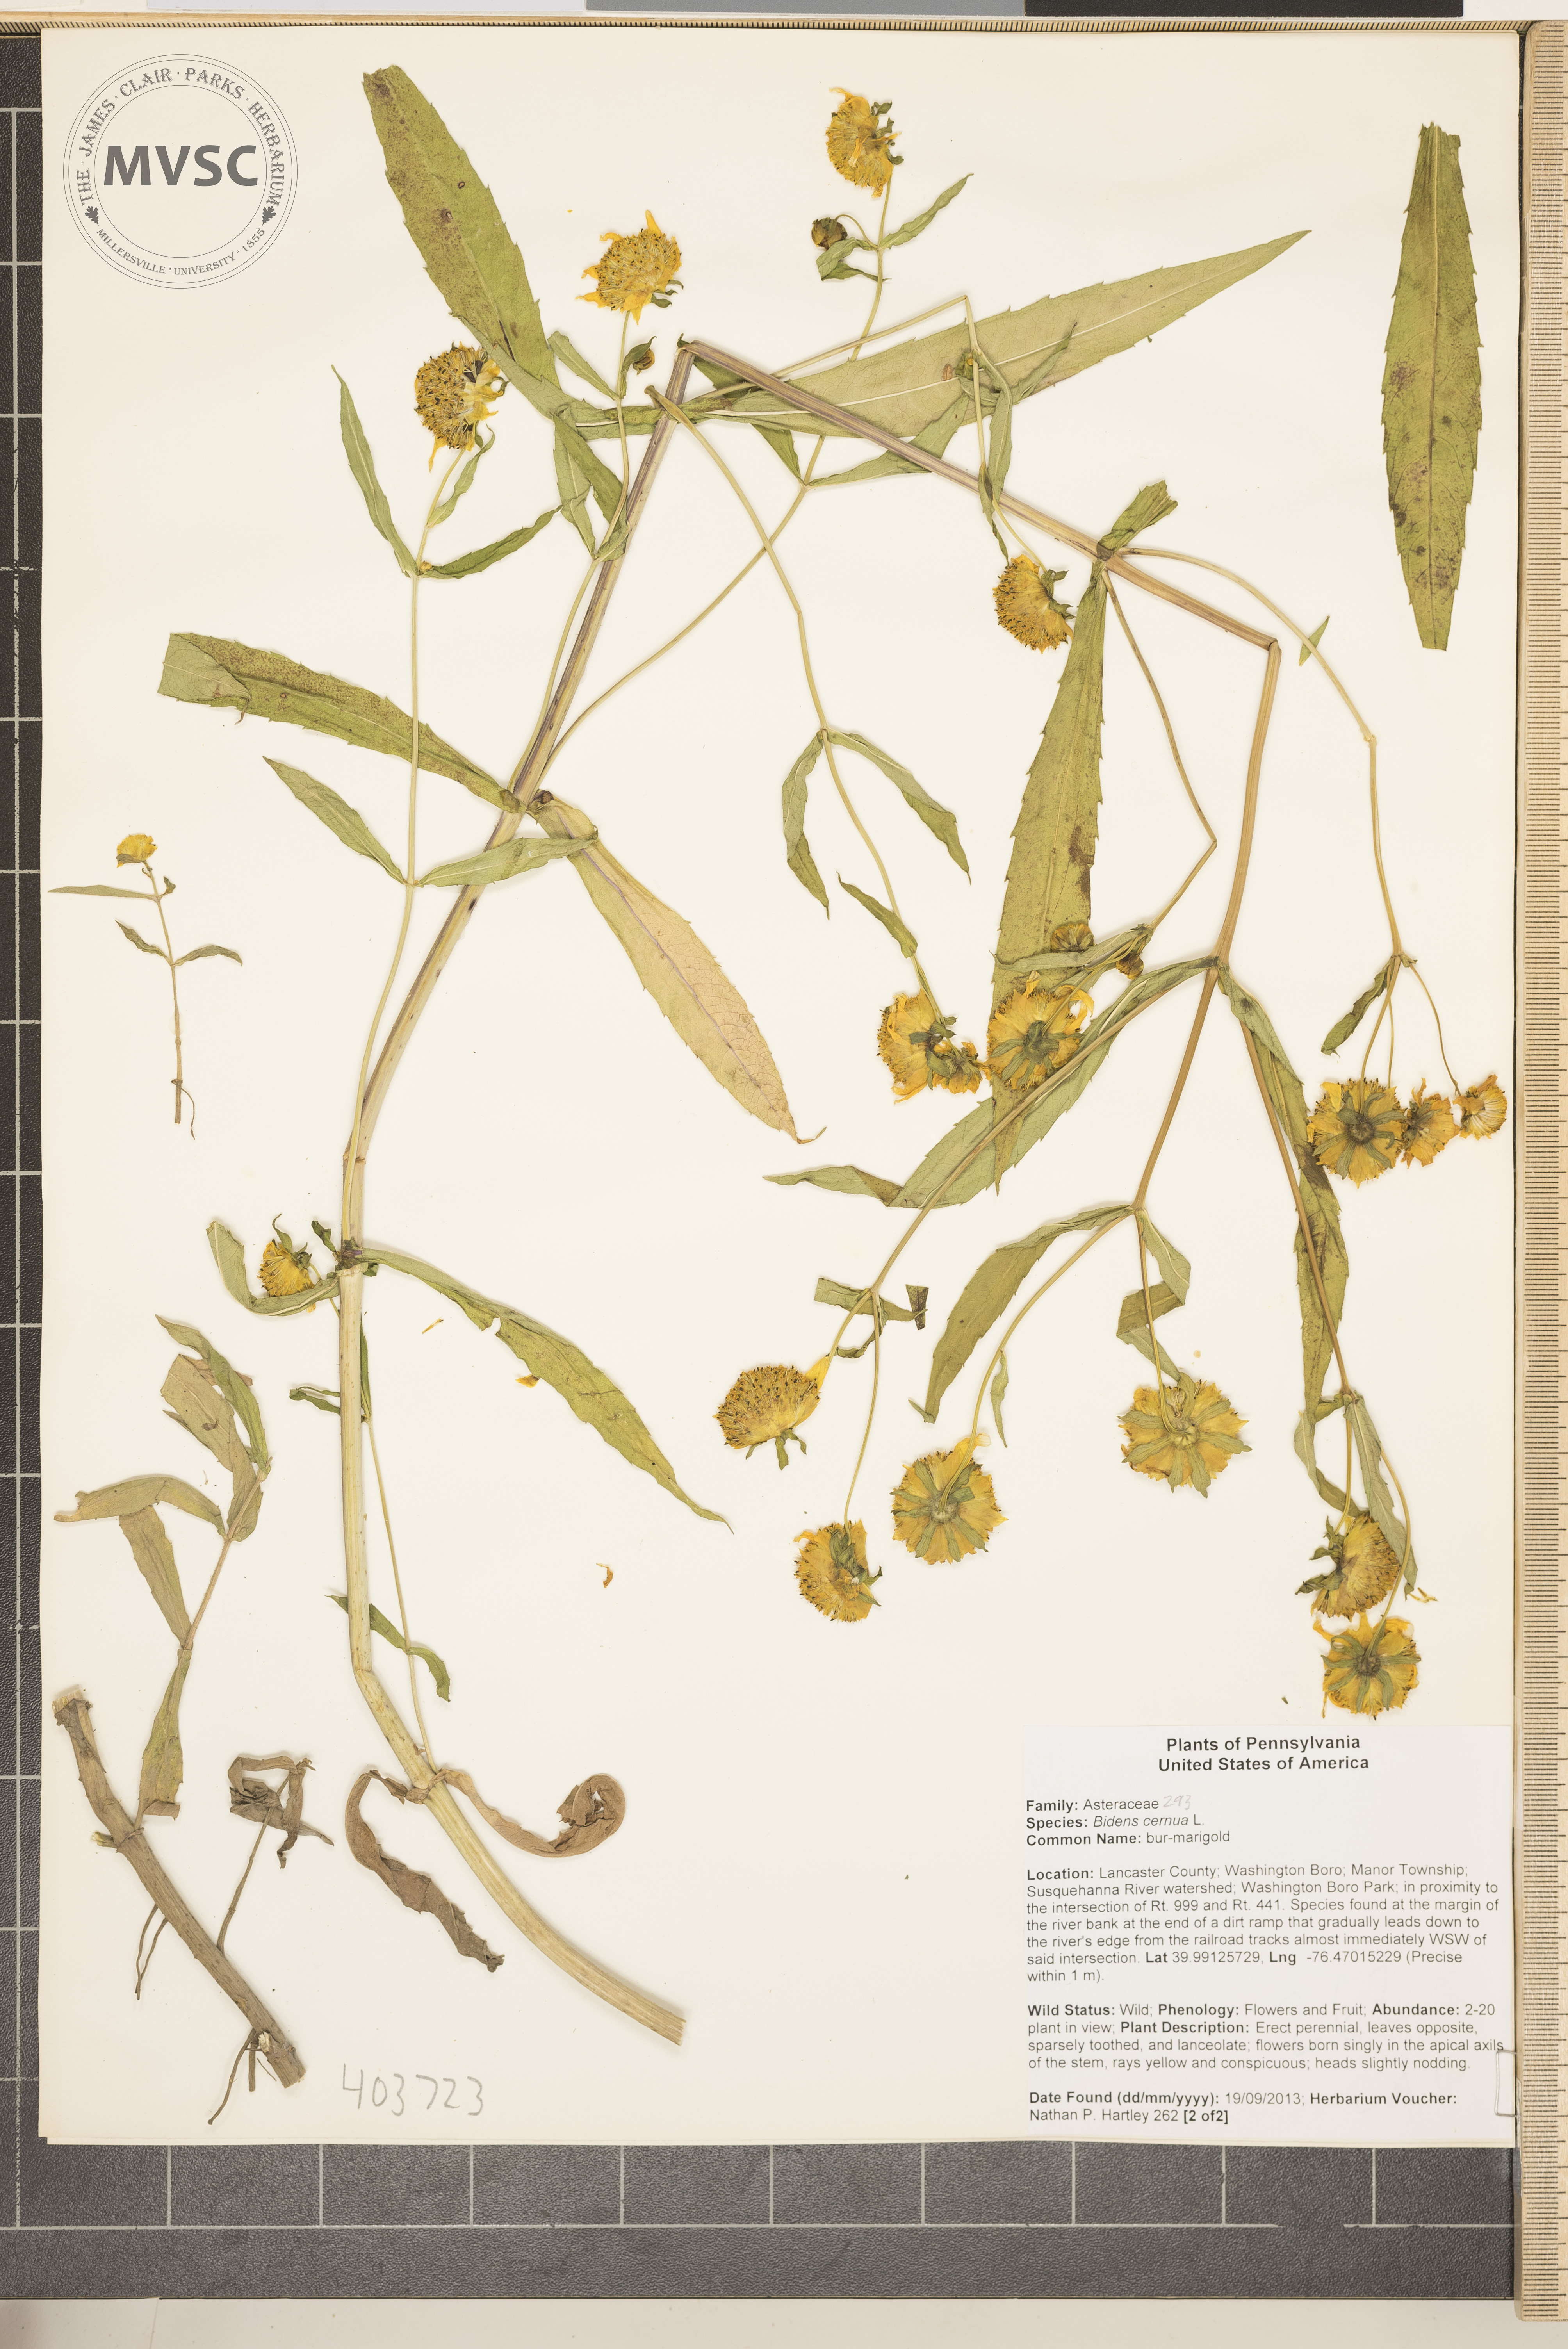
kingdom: Plantae
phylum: Tracheophyta
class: Magnoliopsida
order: Asterales
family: Asteraceae
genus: Bidens
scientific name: Bidens cernua
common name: Nodding bur-marigold
